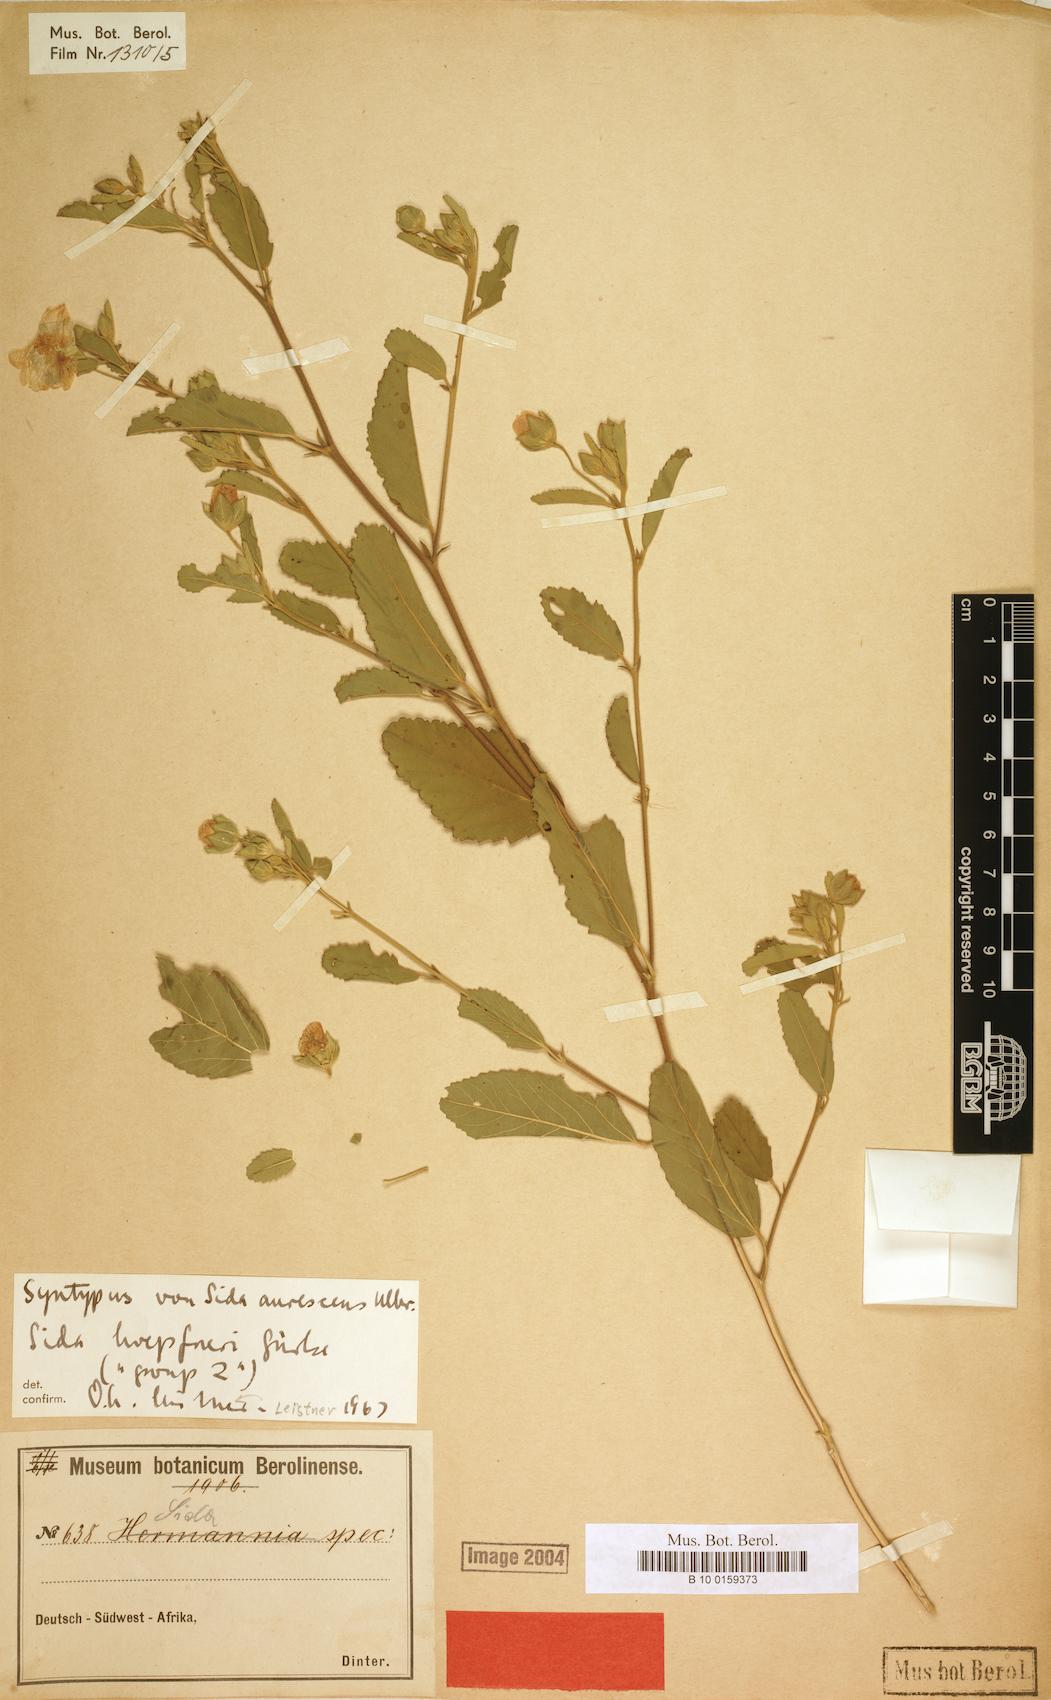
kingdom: Plantae
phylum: Tracheophyta
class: Magnoliopsida
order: Malvales
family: Malvaceae
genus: Sida
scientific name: Sida ovata
